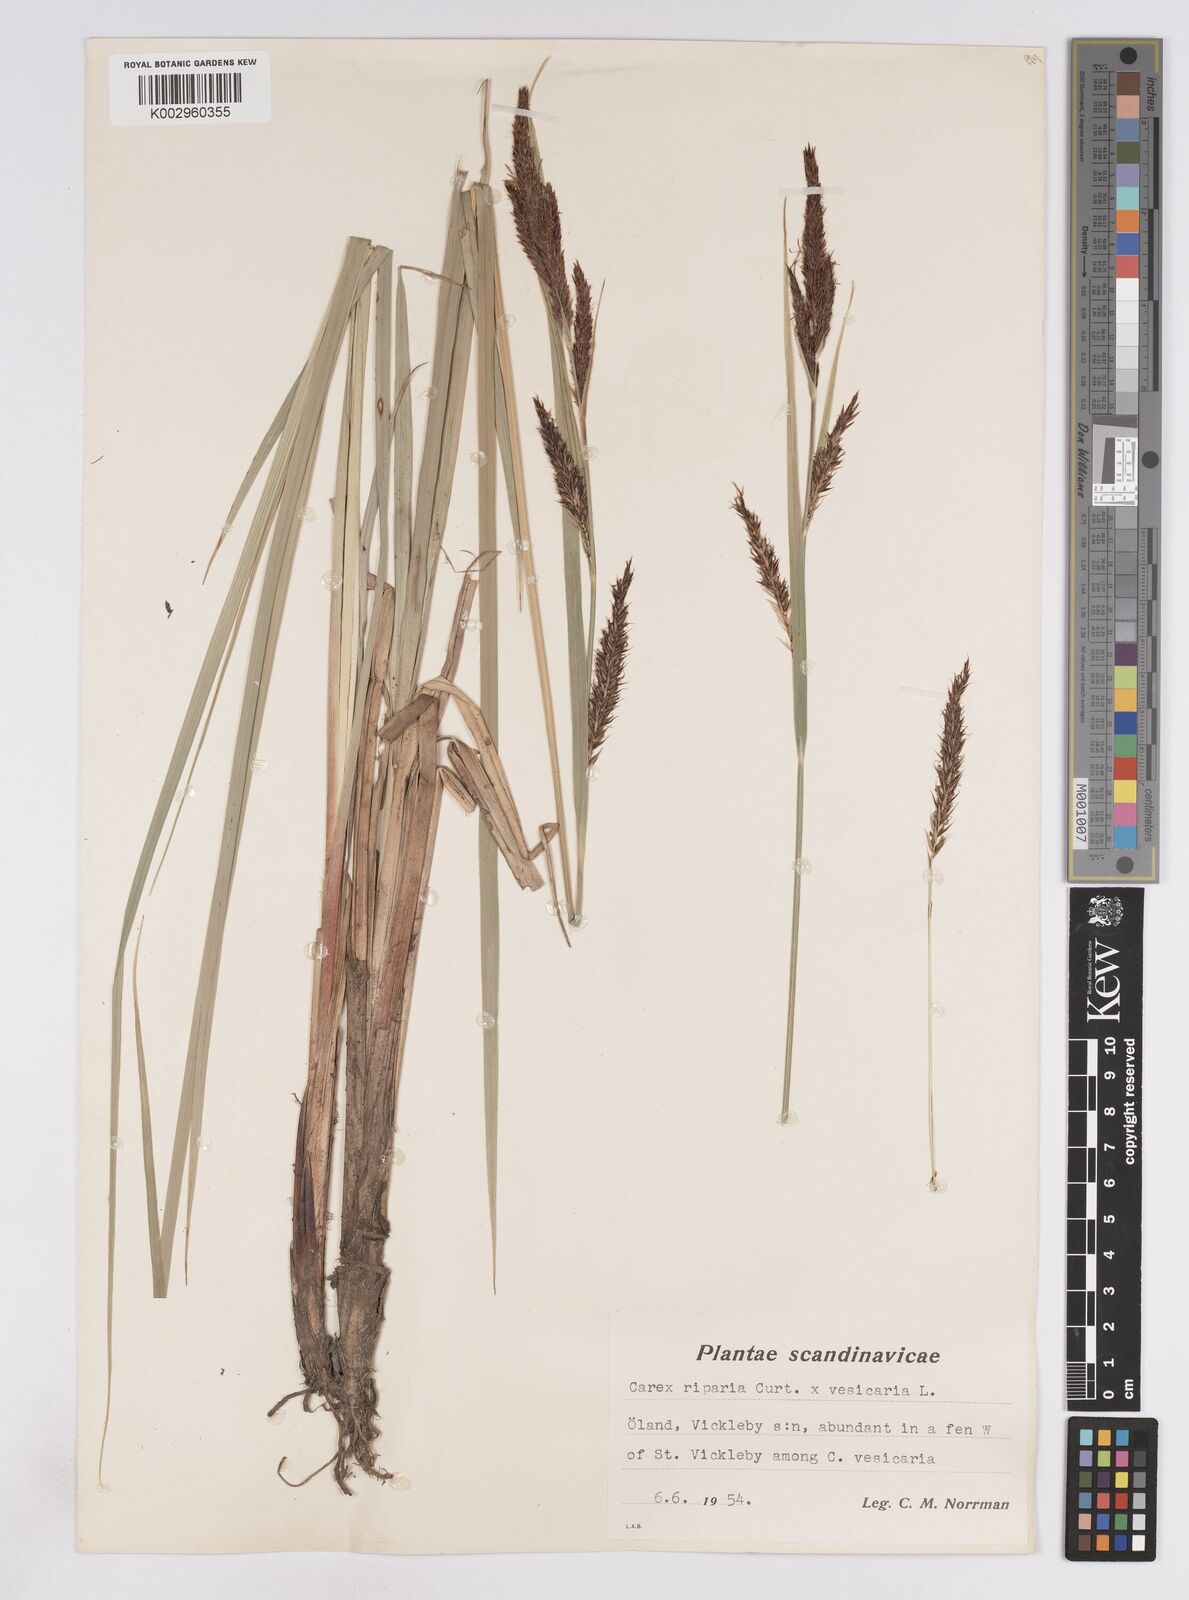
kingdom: Plantae
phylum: Tracheophyta
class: Liliopsida
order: Poales
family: Cyperaceae
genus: Carex
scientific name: Carex vesicaria
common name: Bladder-sedge
